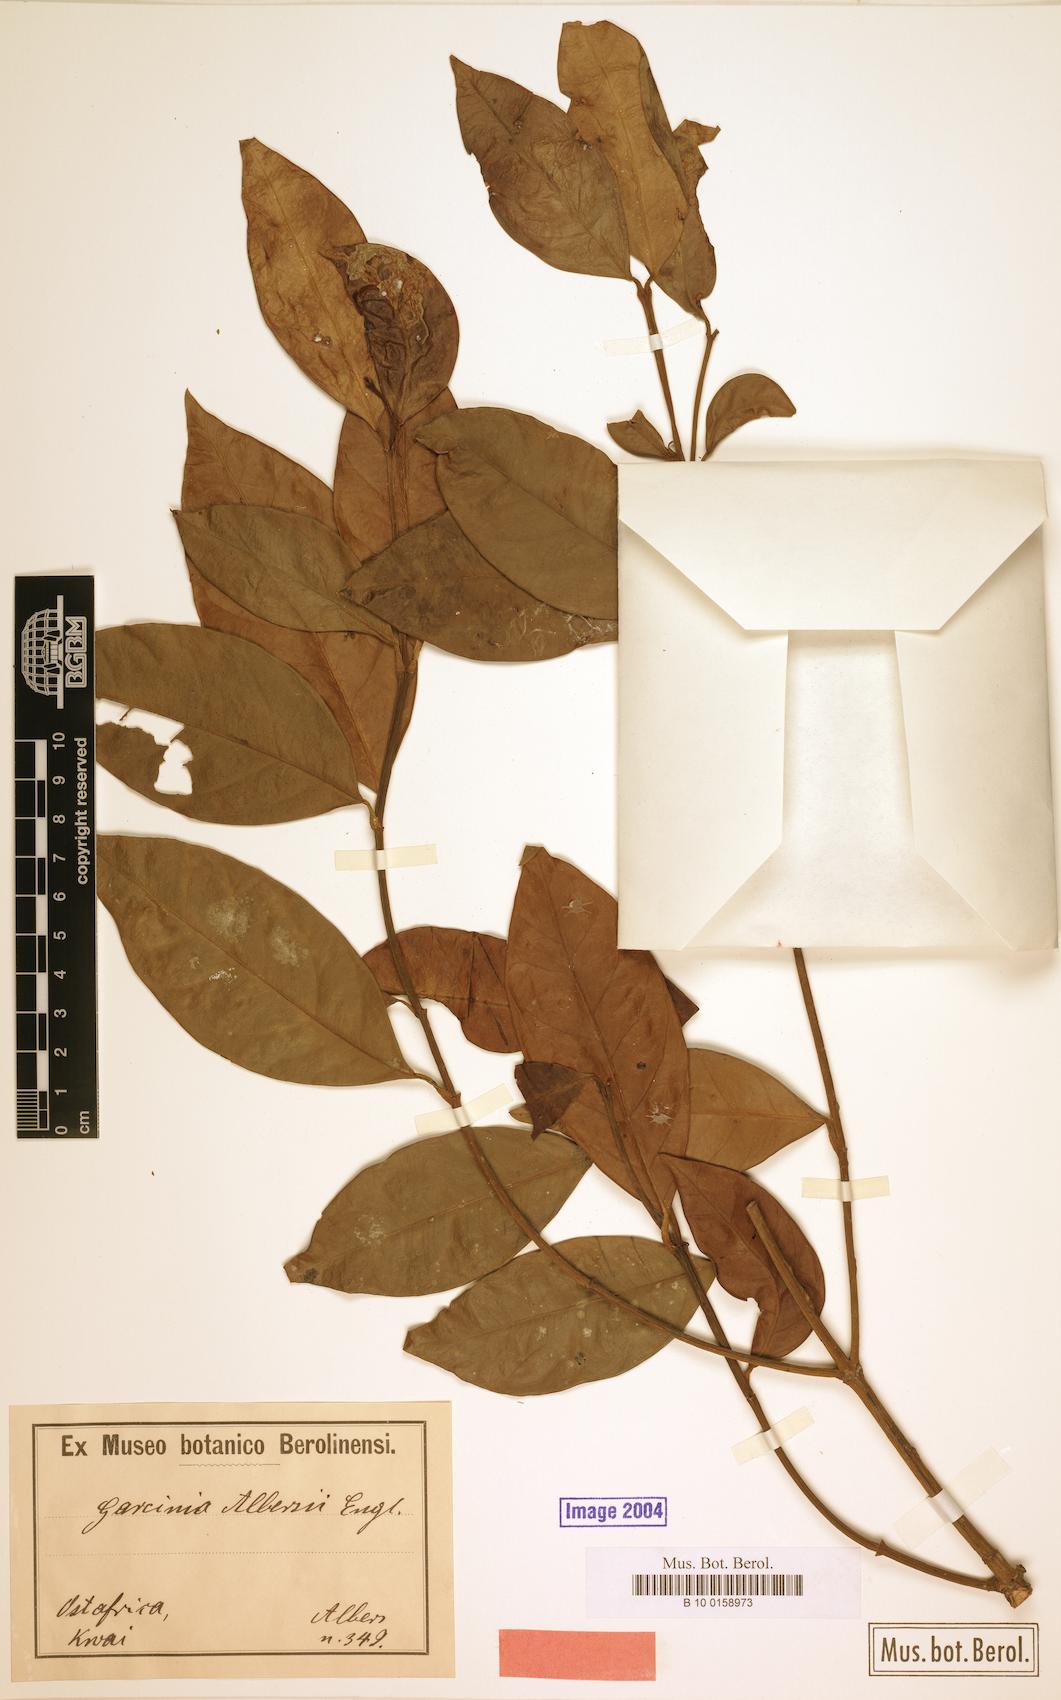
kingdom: Plantae
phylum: Tracheophyta
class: Magnoliopsida
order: Malpighiales
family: Clusiaceae
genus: Garcinia
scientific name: Garcinia volkensii
